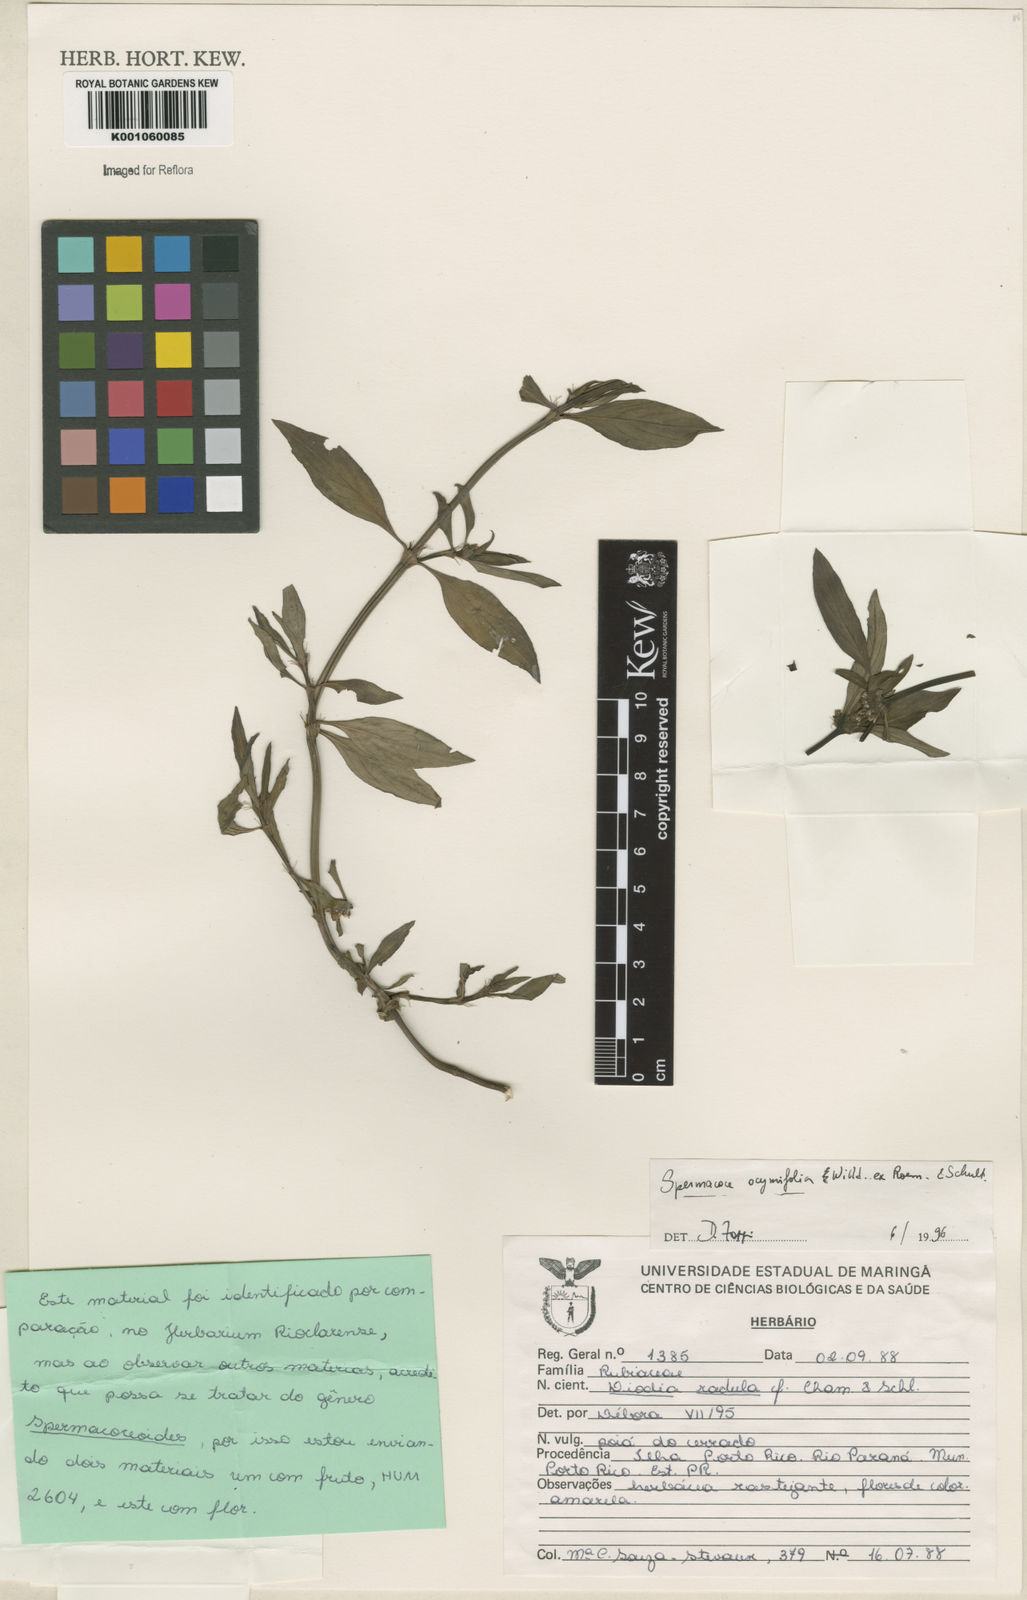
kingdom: Plantae
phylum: Tracheophyta
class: Magnoliopsida
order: Gentianales
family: Rubiaceae
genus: Spermacoce
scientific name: Spermacoce
